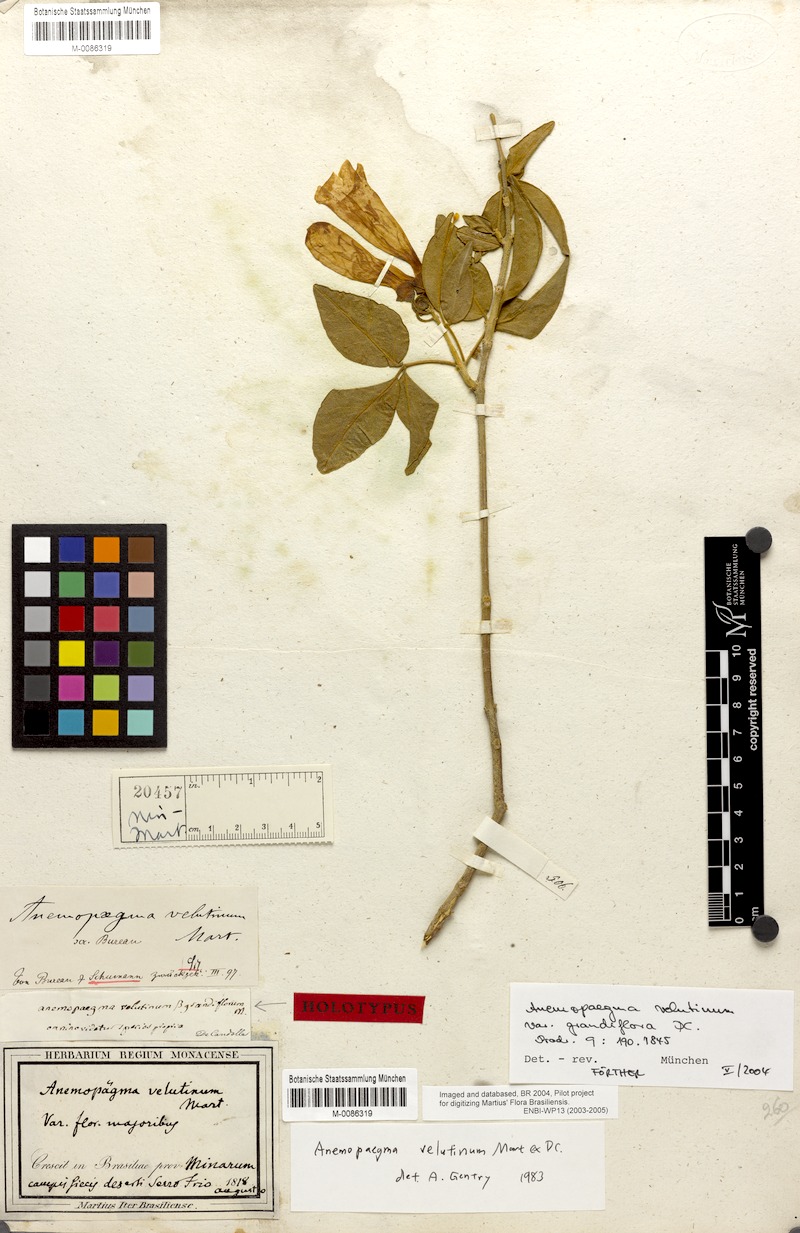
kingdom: Plantae
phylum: Tracheophyta
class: Magnoliopsida
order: Lamiales
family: Bignoniaceae
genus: Anemopaegma
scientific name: Anemopaegma velutinum
